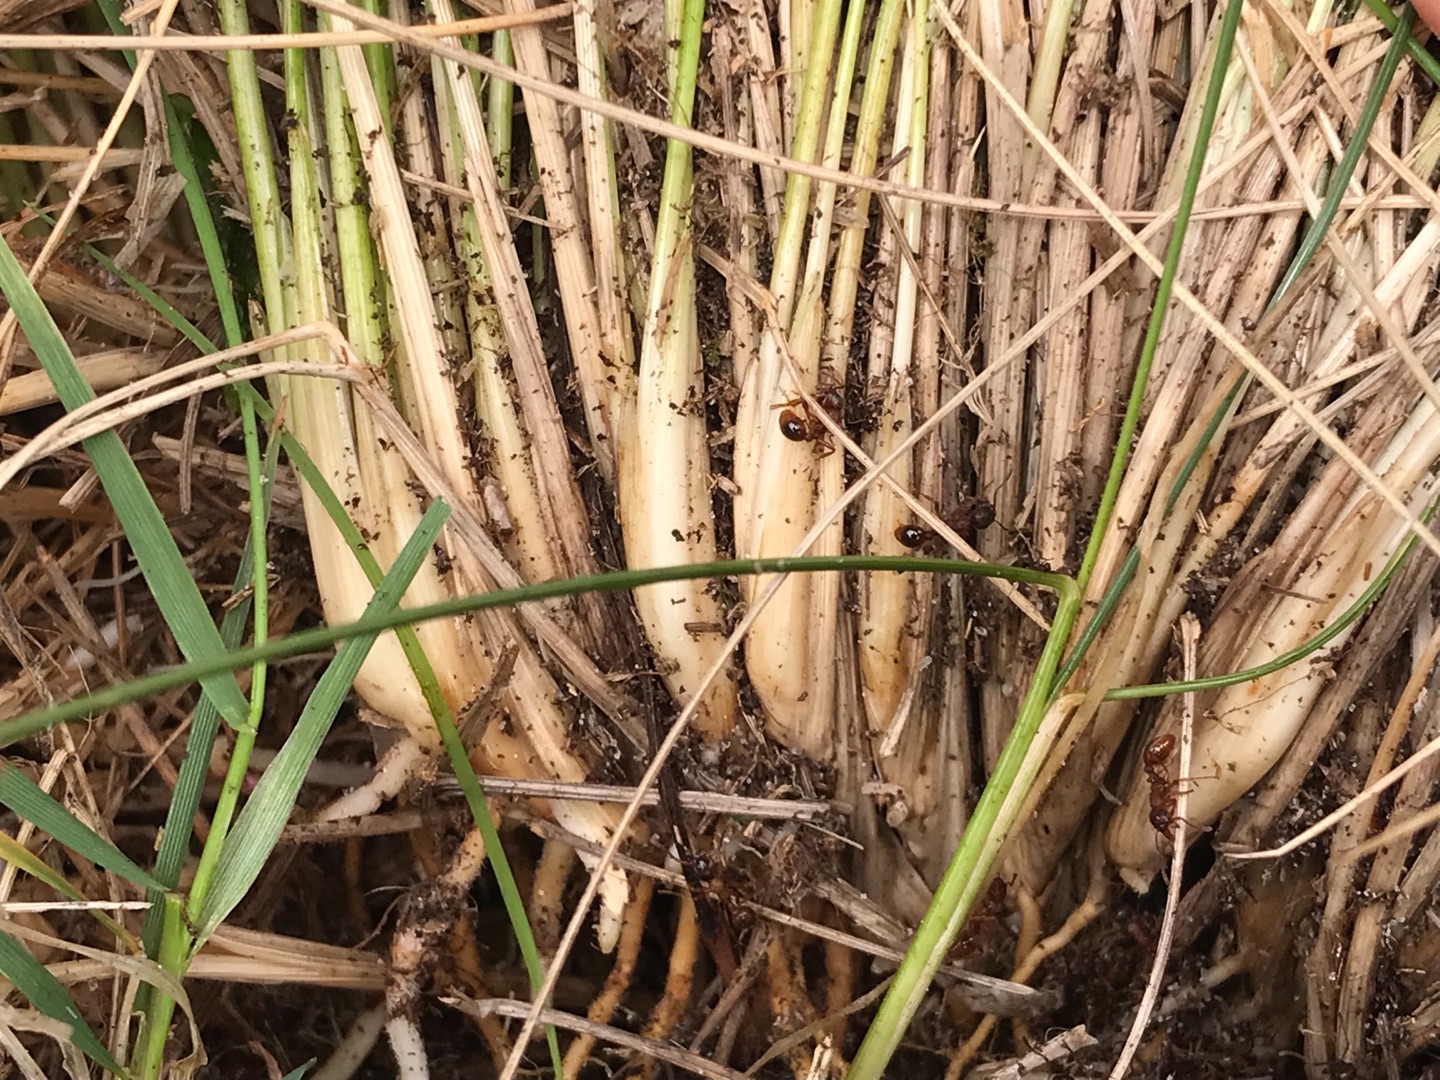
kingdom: Plantae
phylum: Tracheophyta
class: Liliopsida
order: Poales
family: Poaceae
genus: Nardus
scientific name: Nardus stricta
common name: Katteskæg
